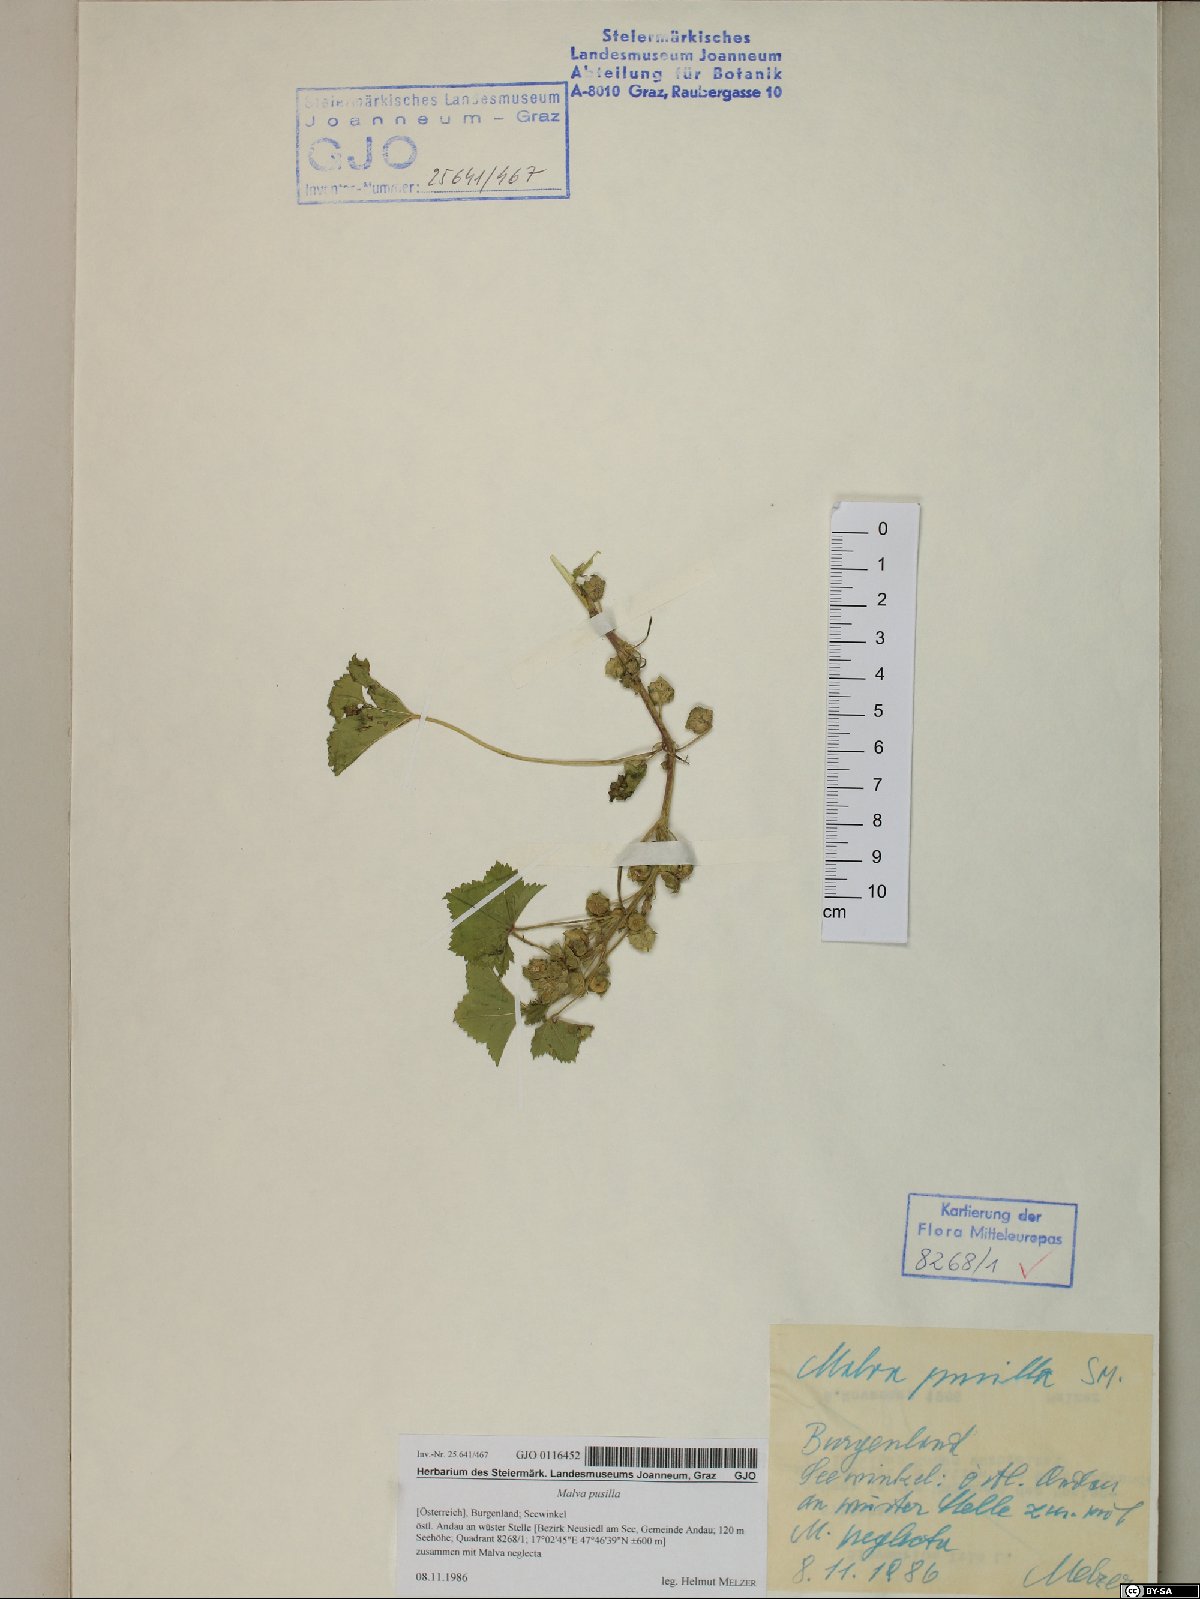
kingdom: Plantae
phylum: Tracheophyta
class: Magnoliopsida
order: Malvales
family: Malvaceae
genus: Malva
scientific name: Malva pusilla
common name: Small mallow
